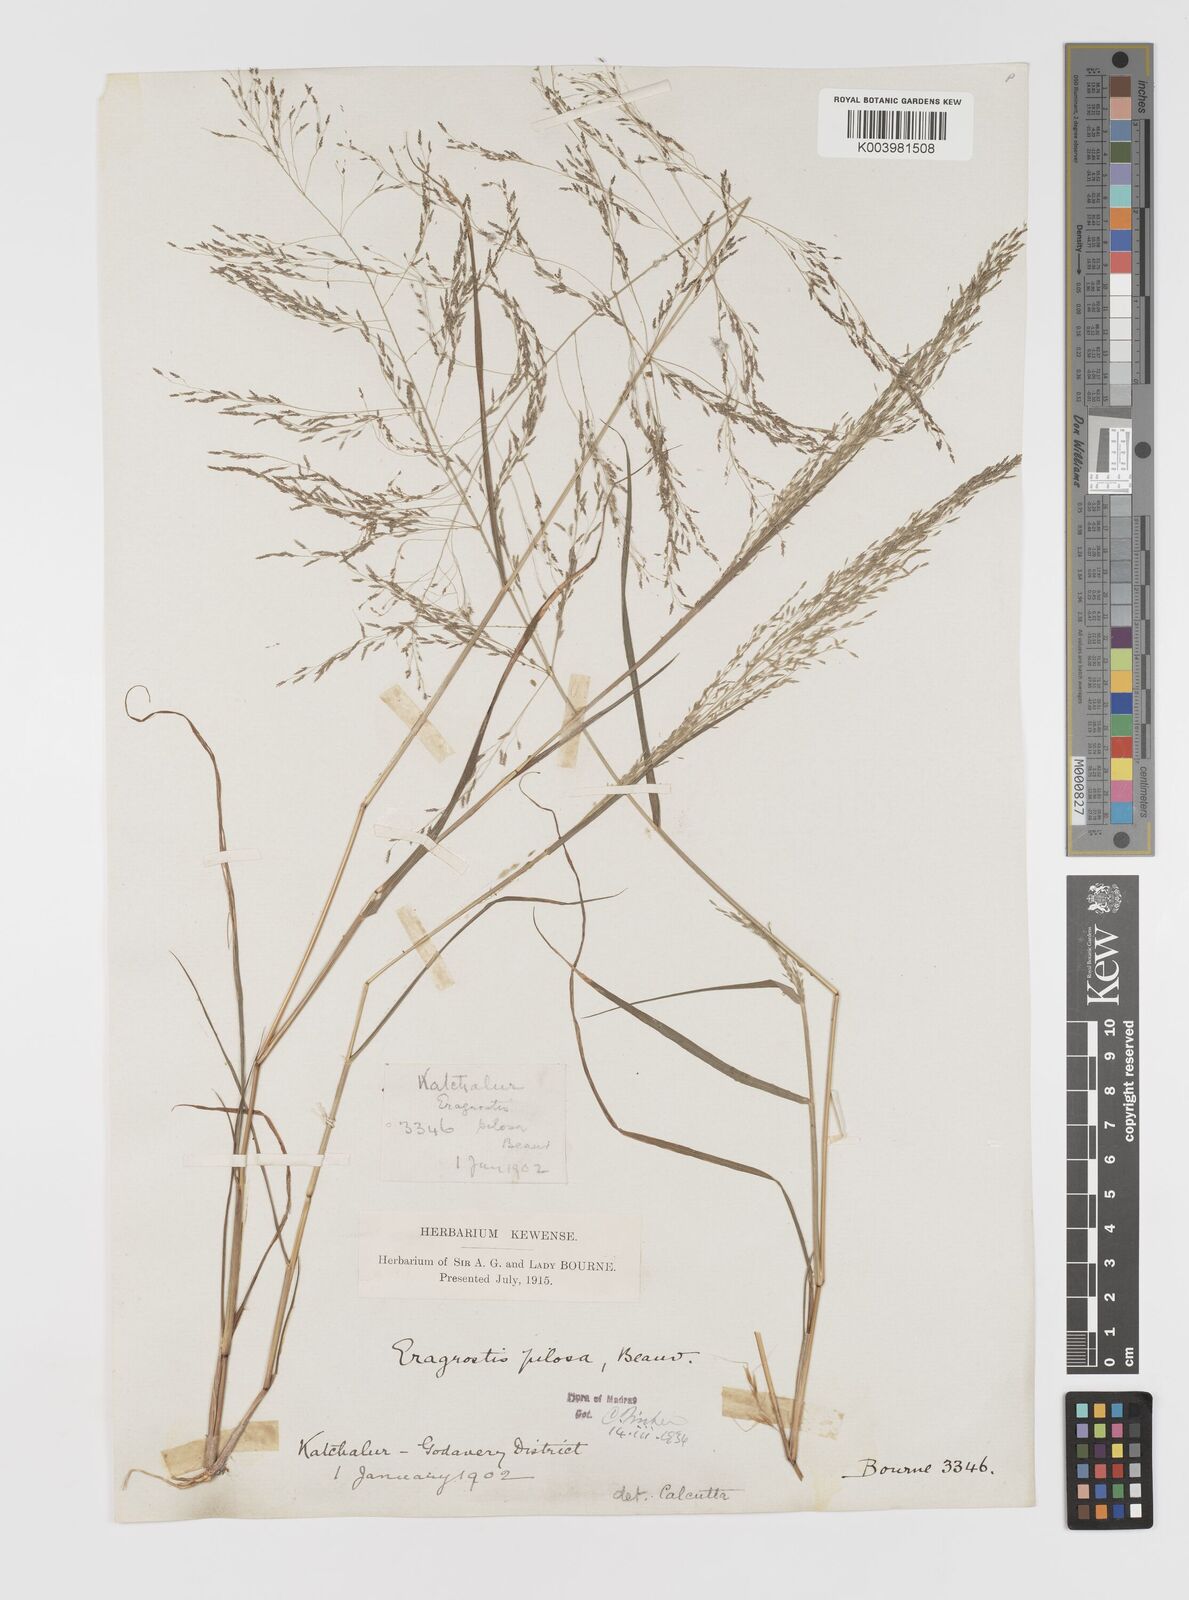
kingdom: Plantae
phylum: Tracheophyta
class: Liliopsida
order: Poales
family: Poaceae
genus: Eragrostis
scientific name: Eragrostis pilosa
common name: Indian lovegrass
